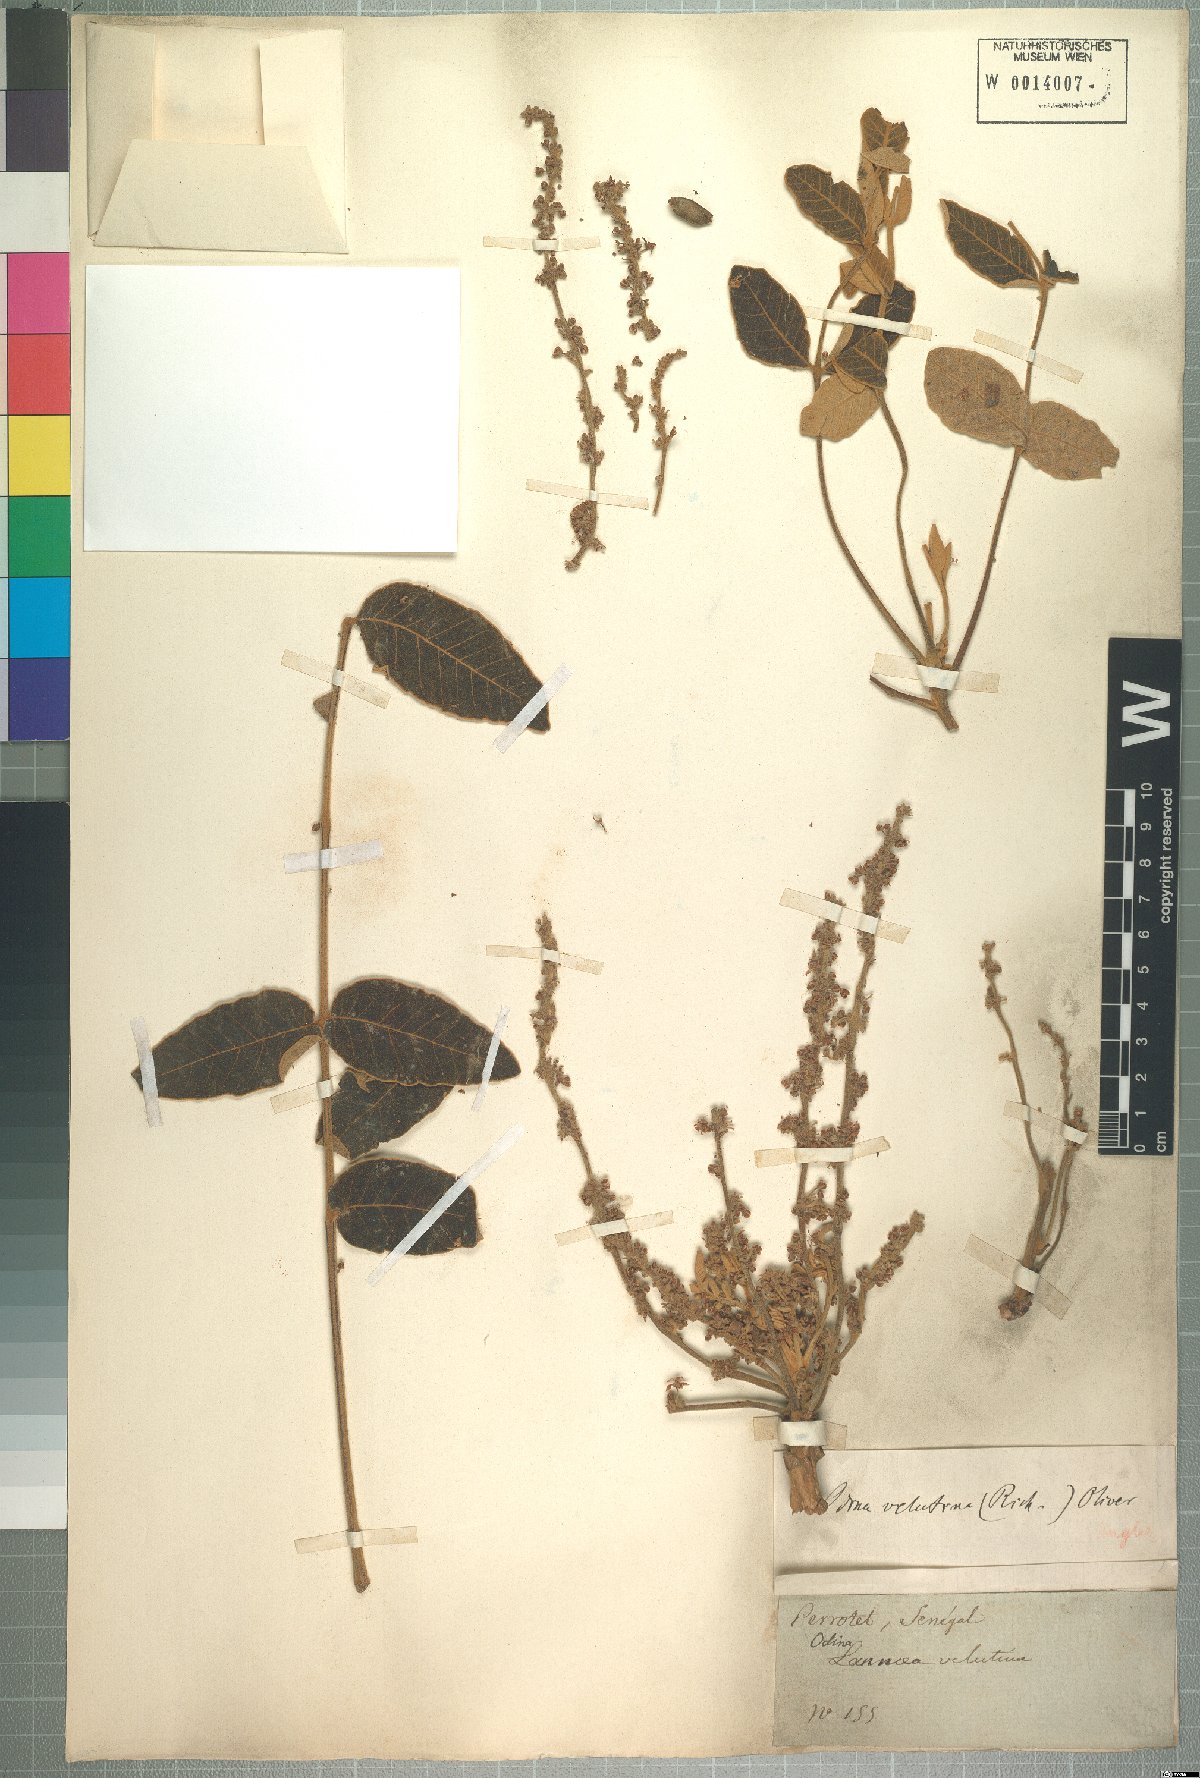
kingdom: Plantae
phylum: Tracheophyta
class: Magnoliopsida
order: Sapindales
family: Anacardiaceae
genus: Lannea
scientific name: Lannea velutina
